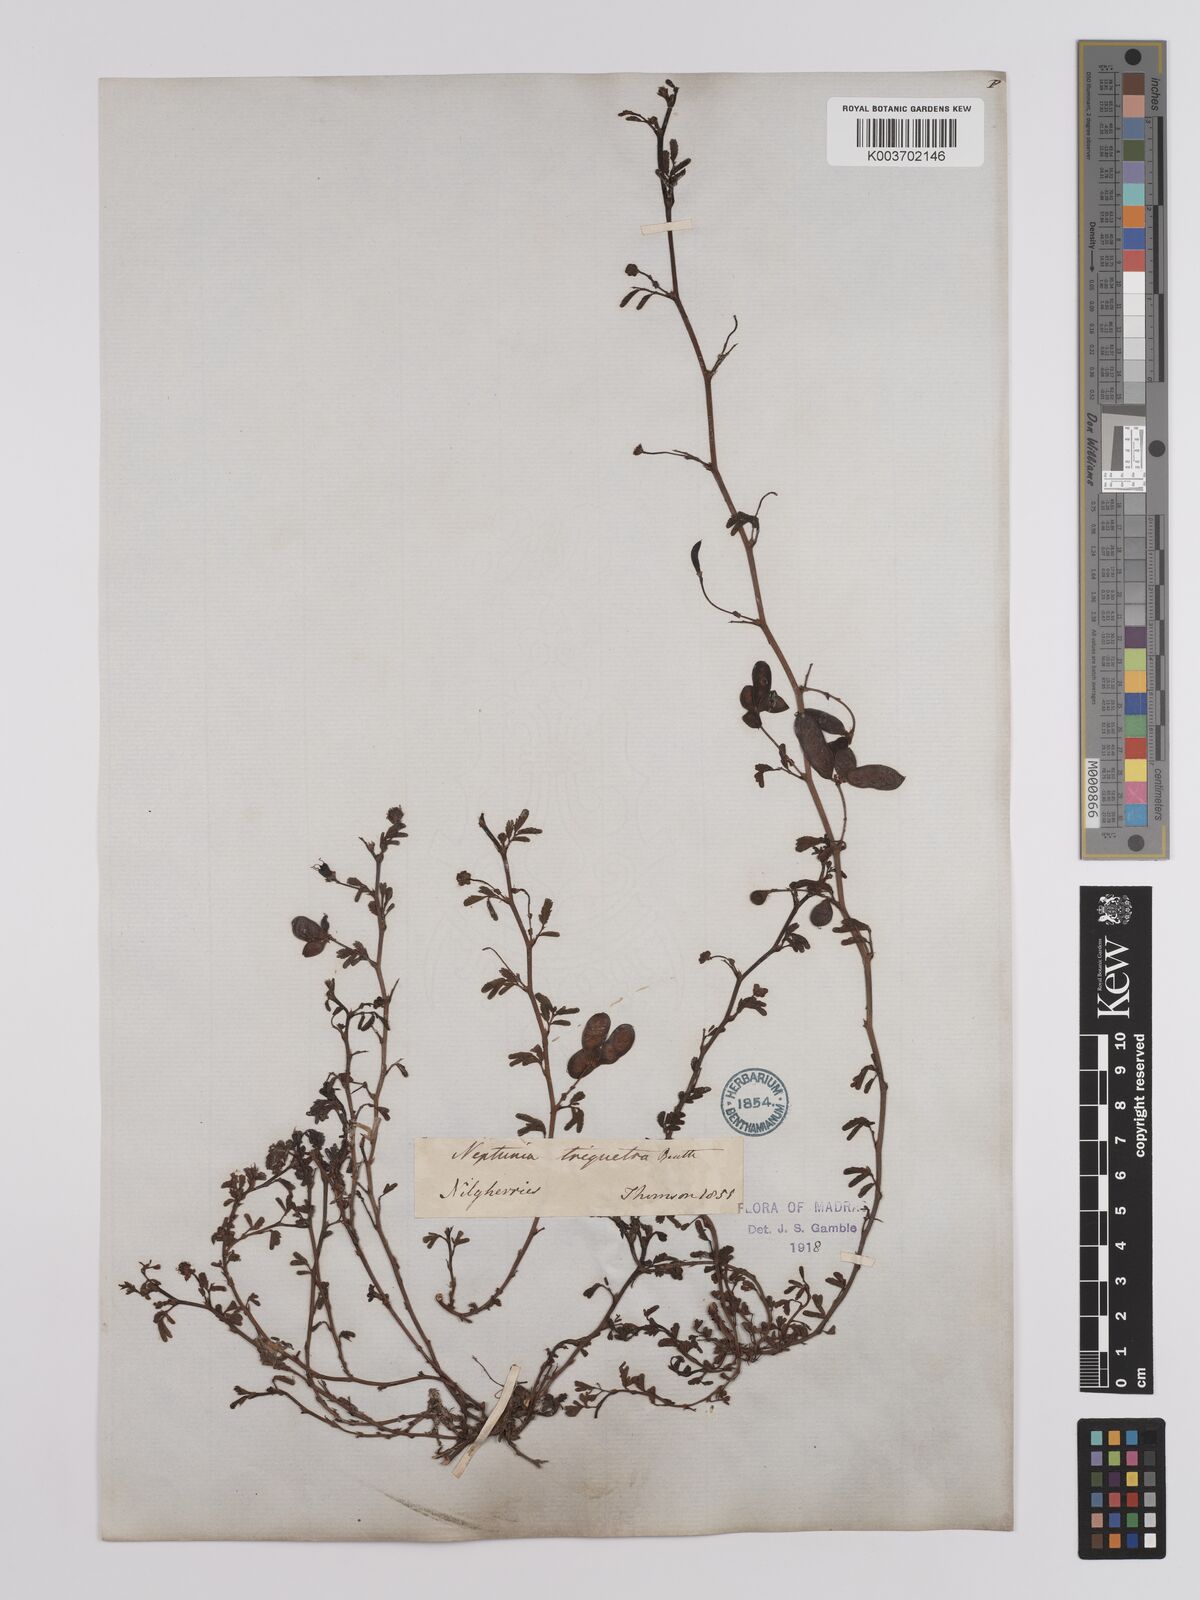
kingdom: Plantae
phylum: Tracheophyta
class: Magnoliopsida
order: Fabales
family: Fabaceae
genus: Neptunia
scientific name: Neptunia triquetra
